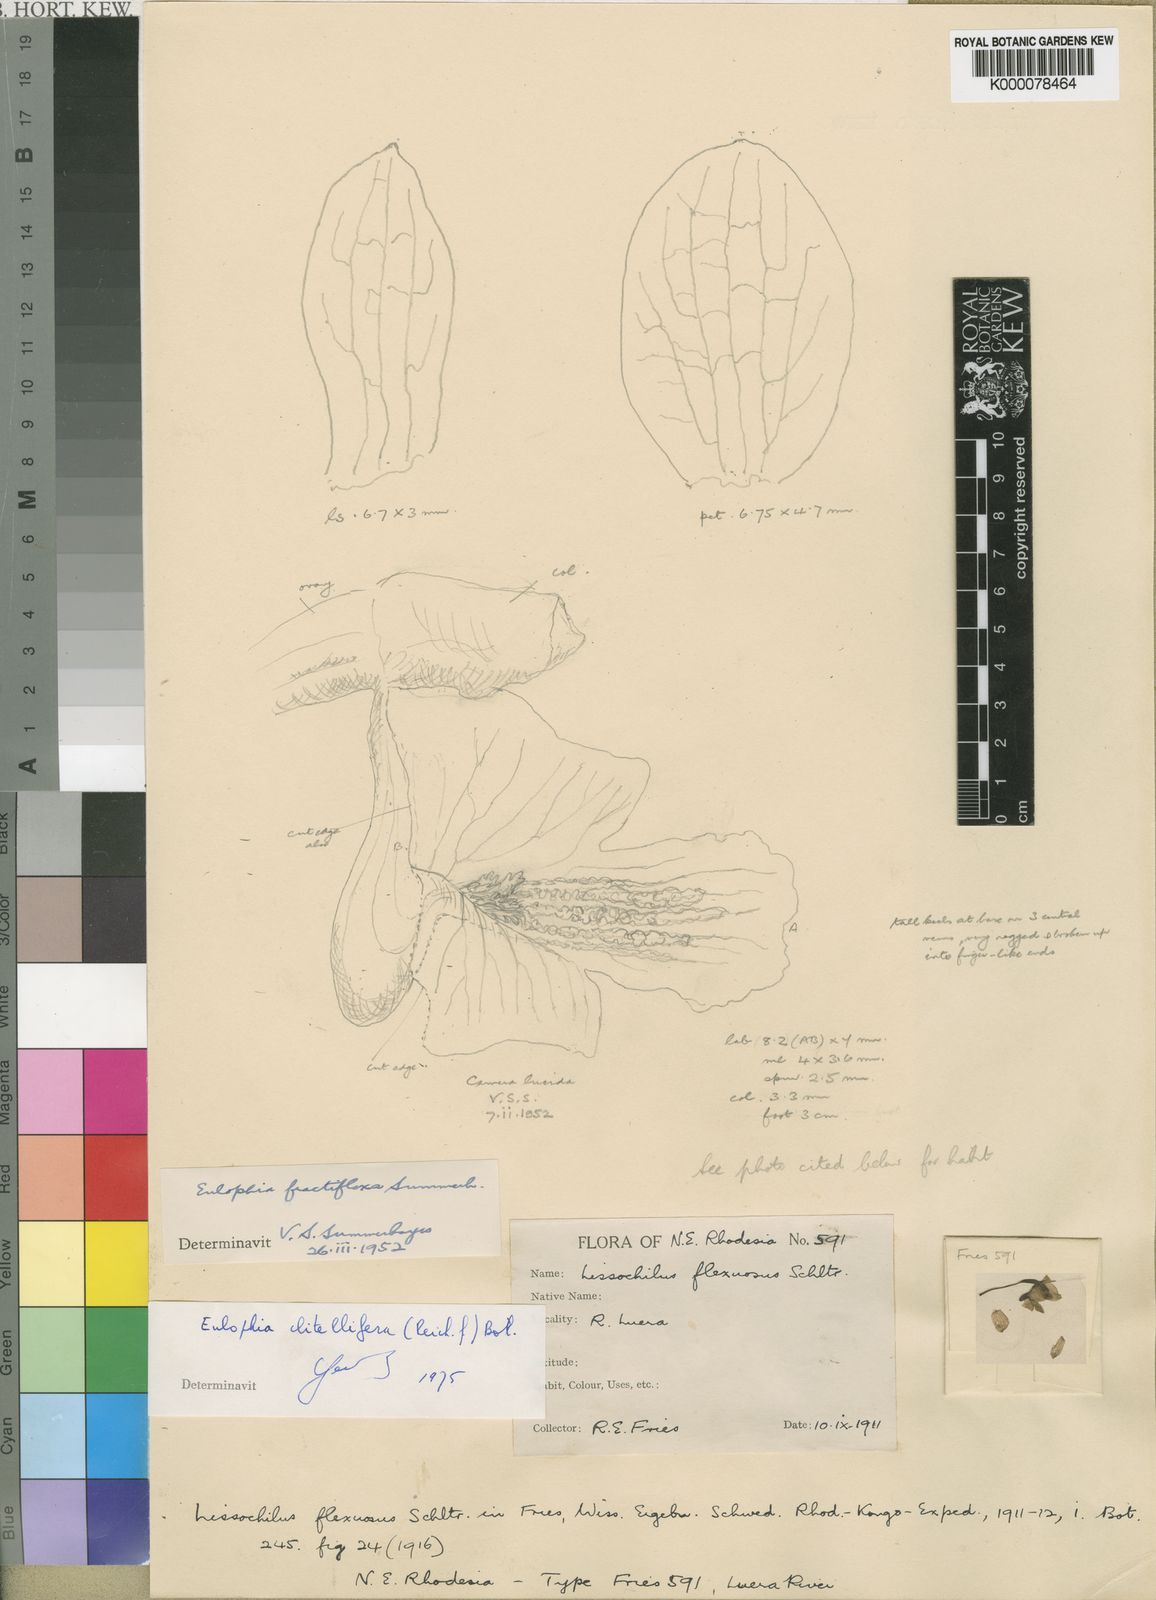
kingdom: Plantae
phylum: Tracheophyta
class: Liliopsida
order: Asparagales
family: Orchidaceae
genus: Eulophia
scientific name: Eulophia clitellifera
